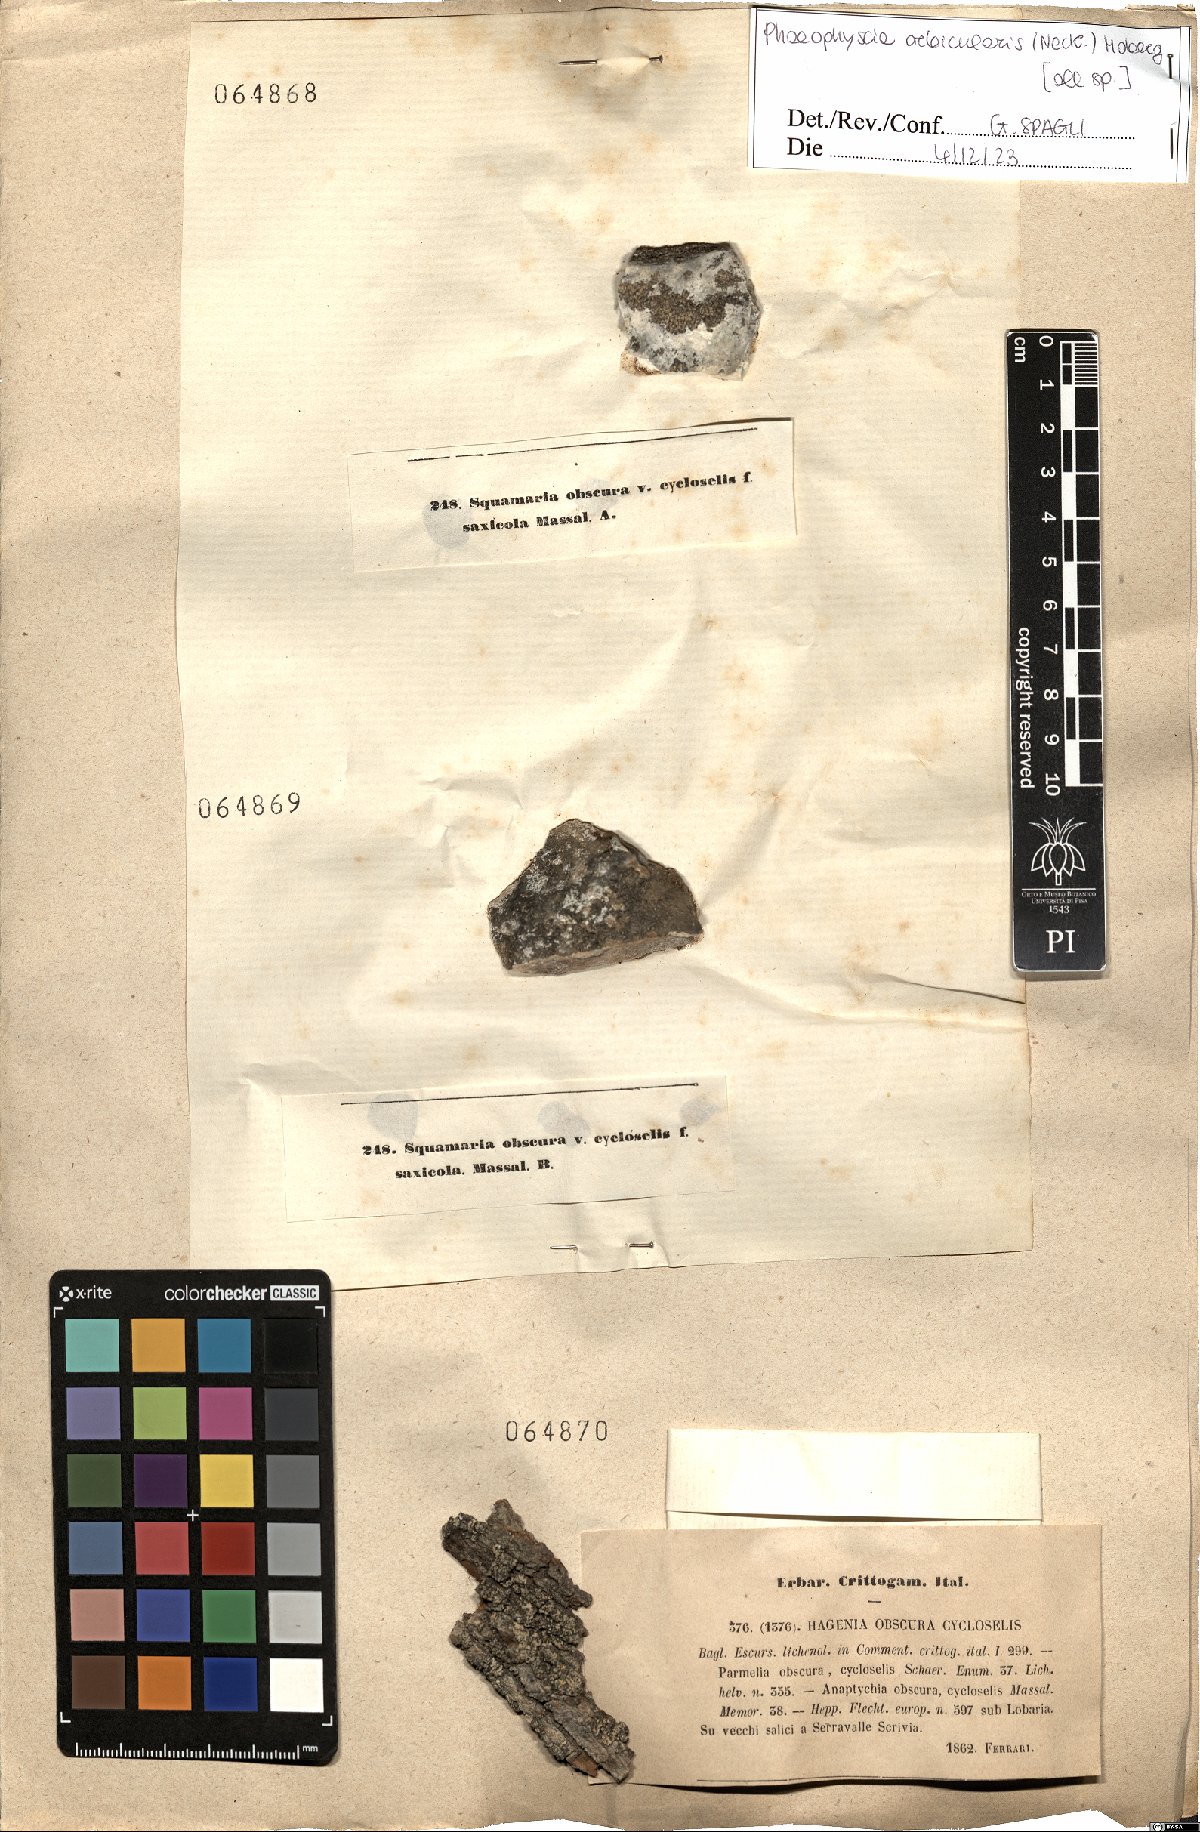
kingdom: Fungi
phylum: Ascomycota
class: Lecanoromycetes
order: Caliciales
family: Physciaceae
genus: Phaeophyscia
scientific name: Phaeophyscia orbicularis
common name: Mealy shadow lichen
